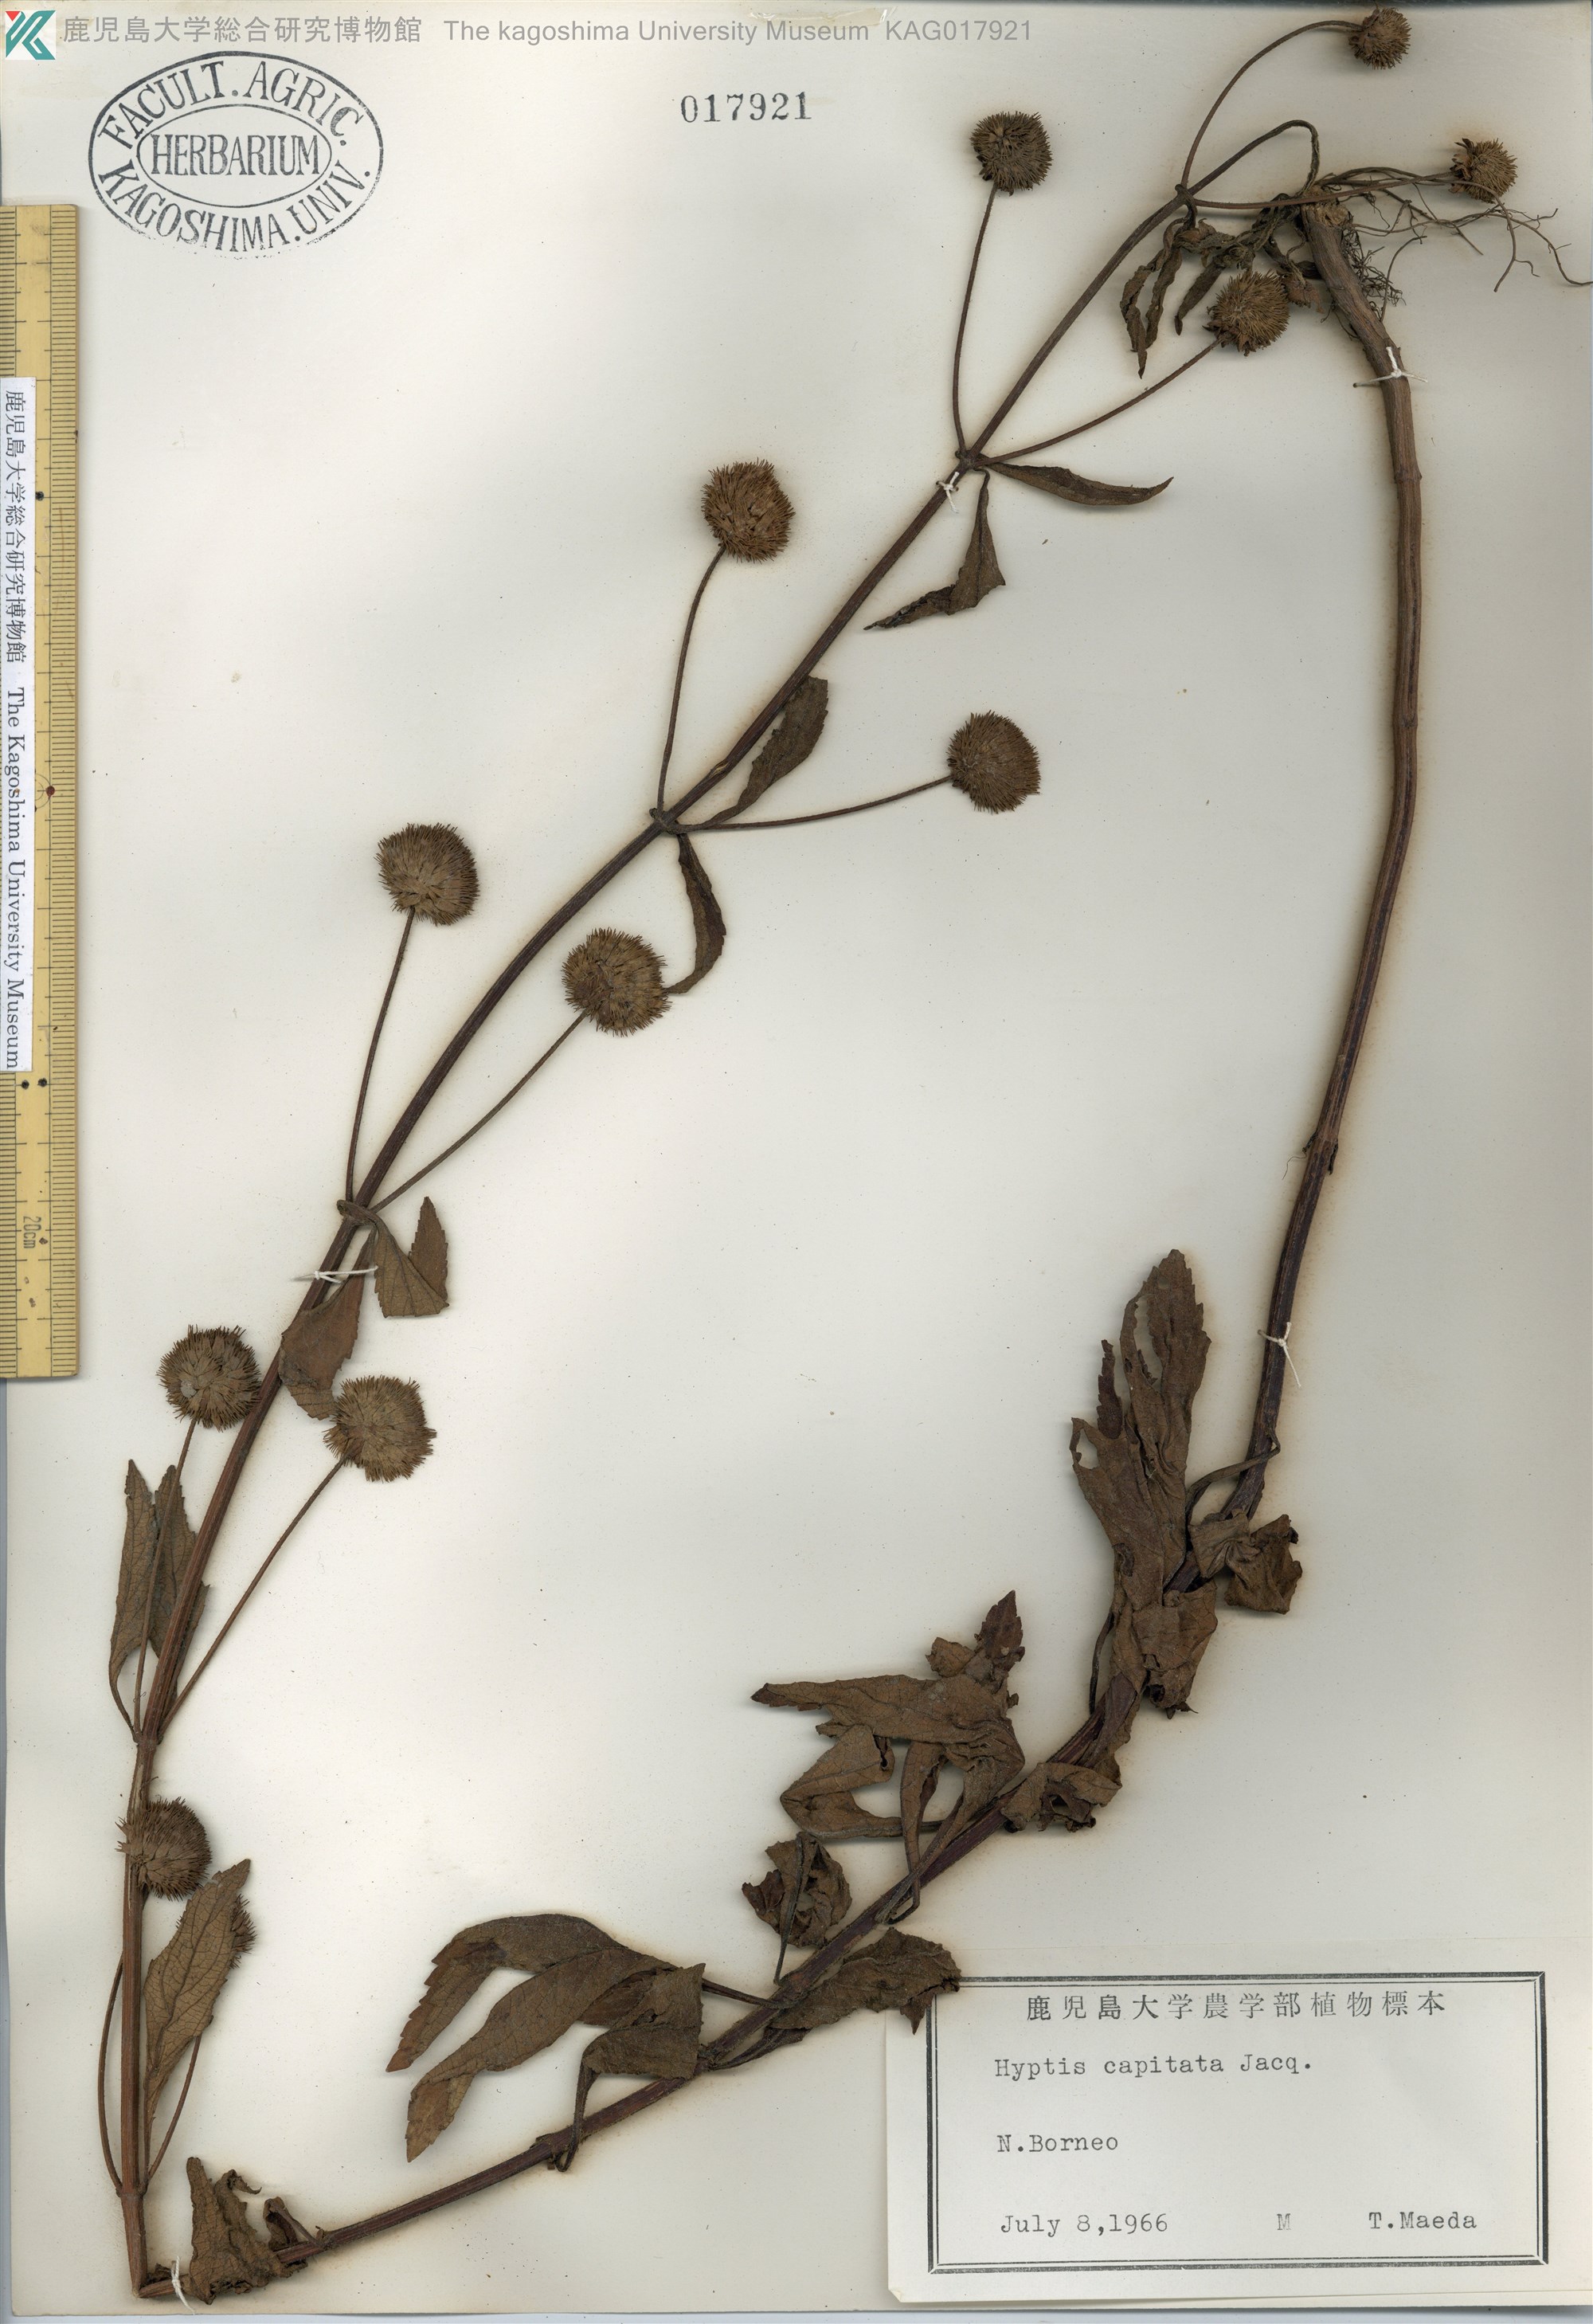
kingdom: Plantae
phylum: Tracheophyta
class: Magnoliopsida
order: Lamiales
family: Lamiaceae
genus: Hyptis
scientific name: Hyptis capitata
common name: False ironwort
